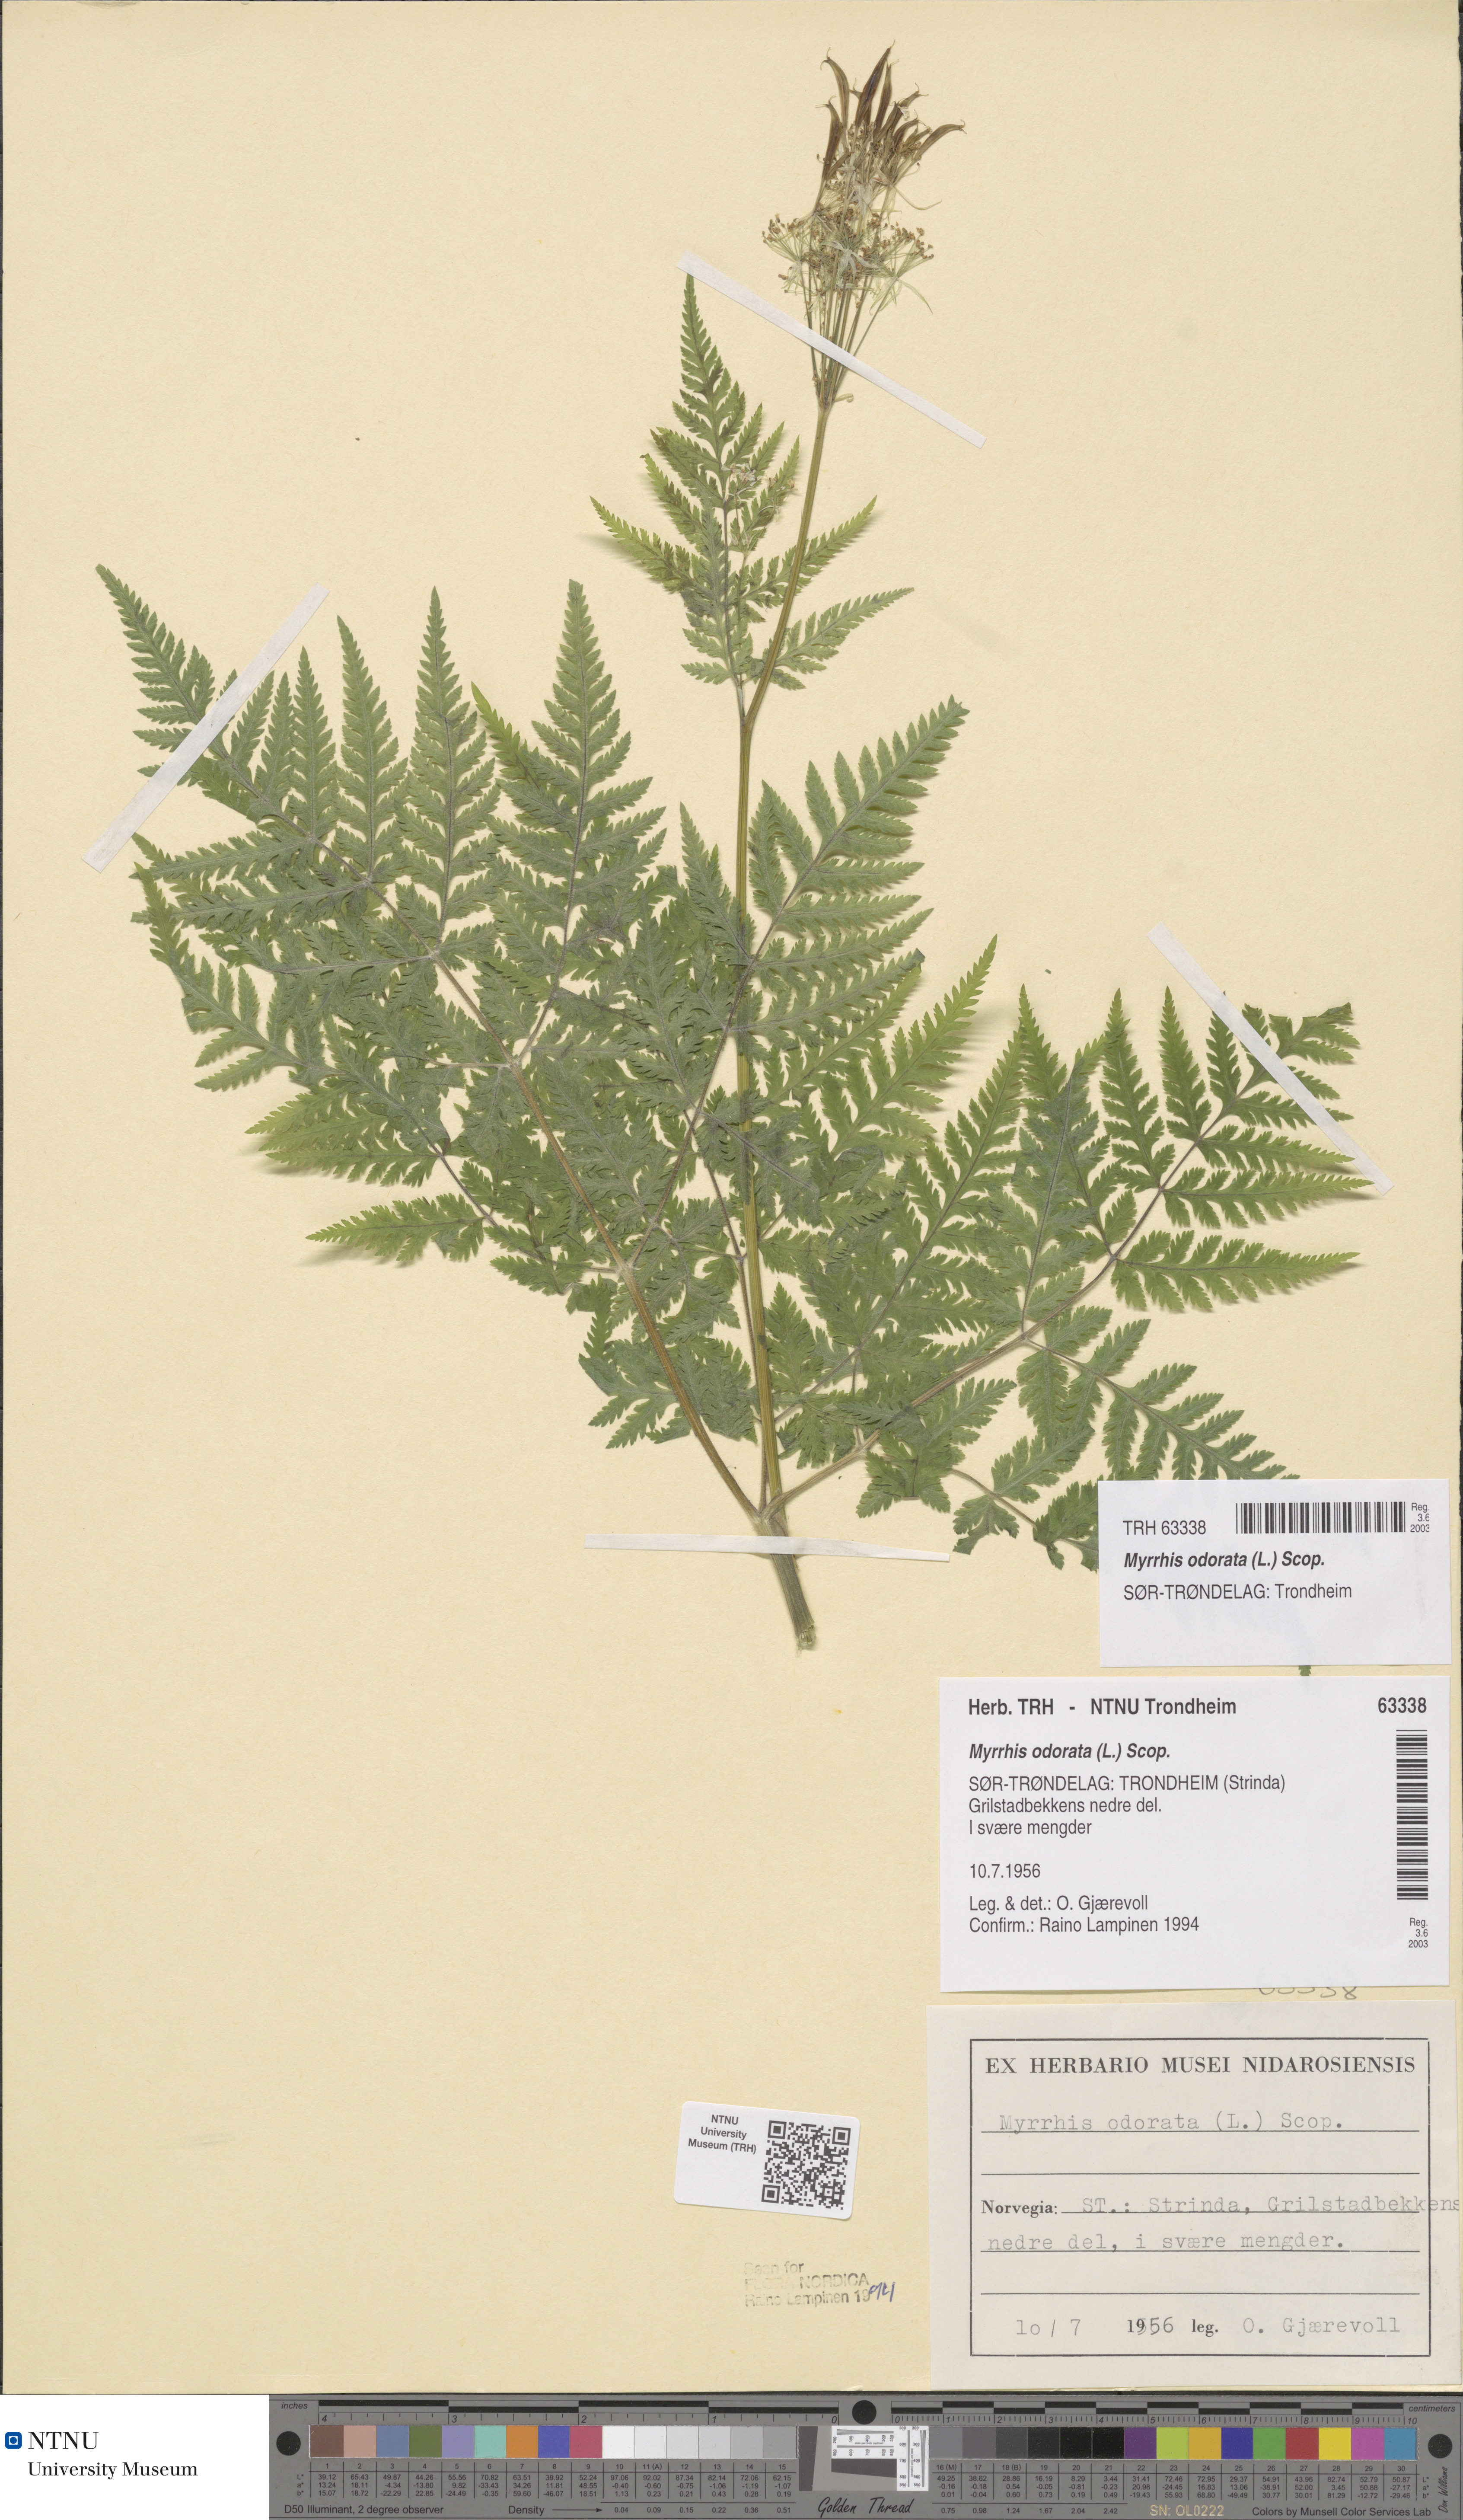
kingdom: Plantae
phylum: Tracheophyta
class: Magnoliopsida
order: Apiales
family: Apiaceae
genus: Myrrhis
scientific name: Myrrhis odorata
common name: Sweet cicely
